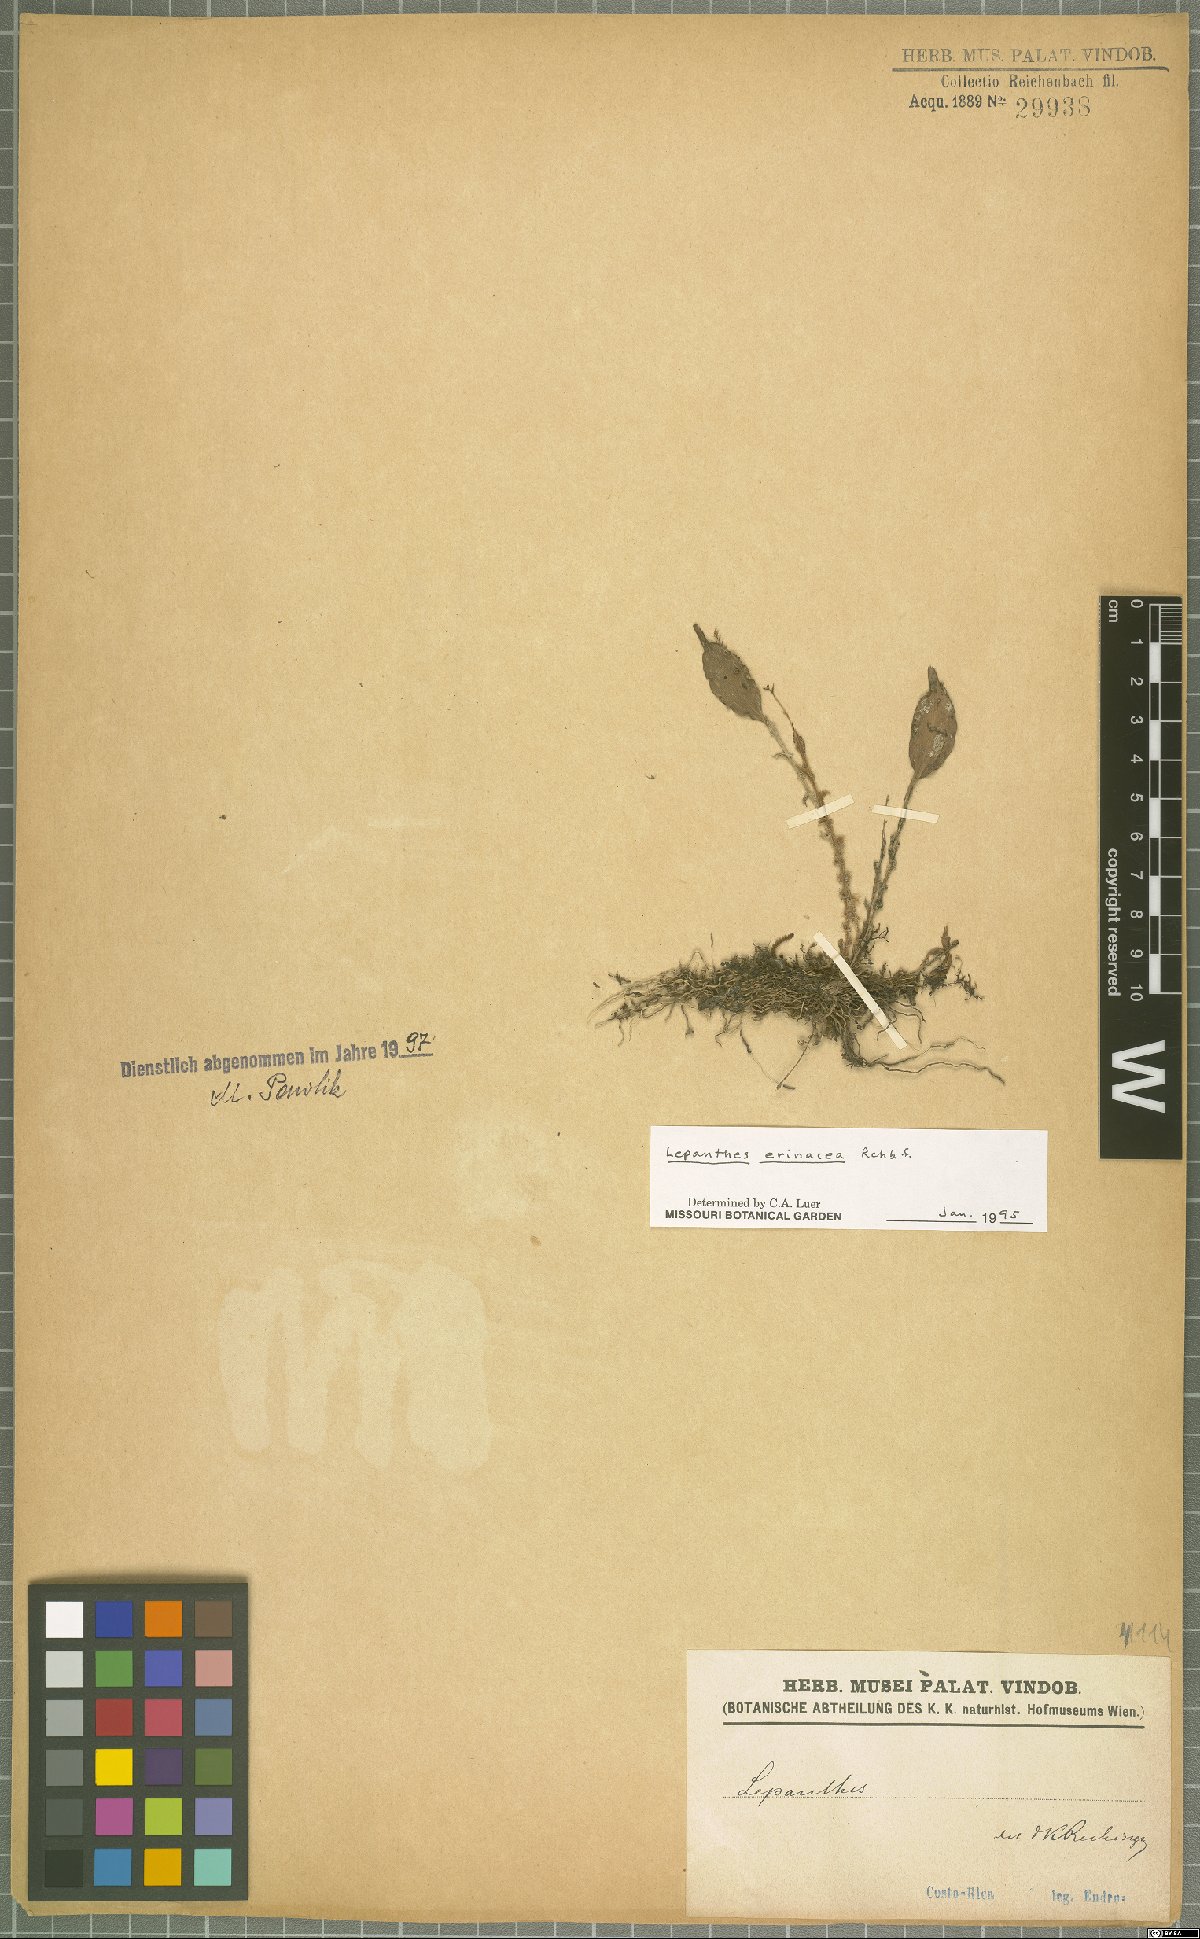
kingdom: Plantae
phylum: Tracheophyta
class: Liliopsida
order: Asparagales
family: Orchidaceae
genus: Lepanthes
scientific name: Lepanthes erinacea
